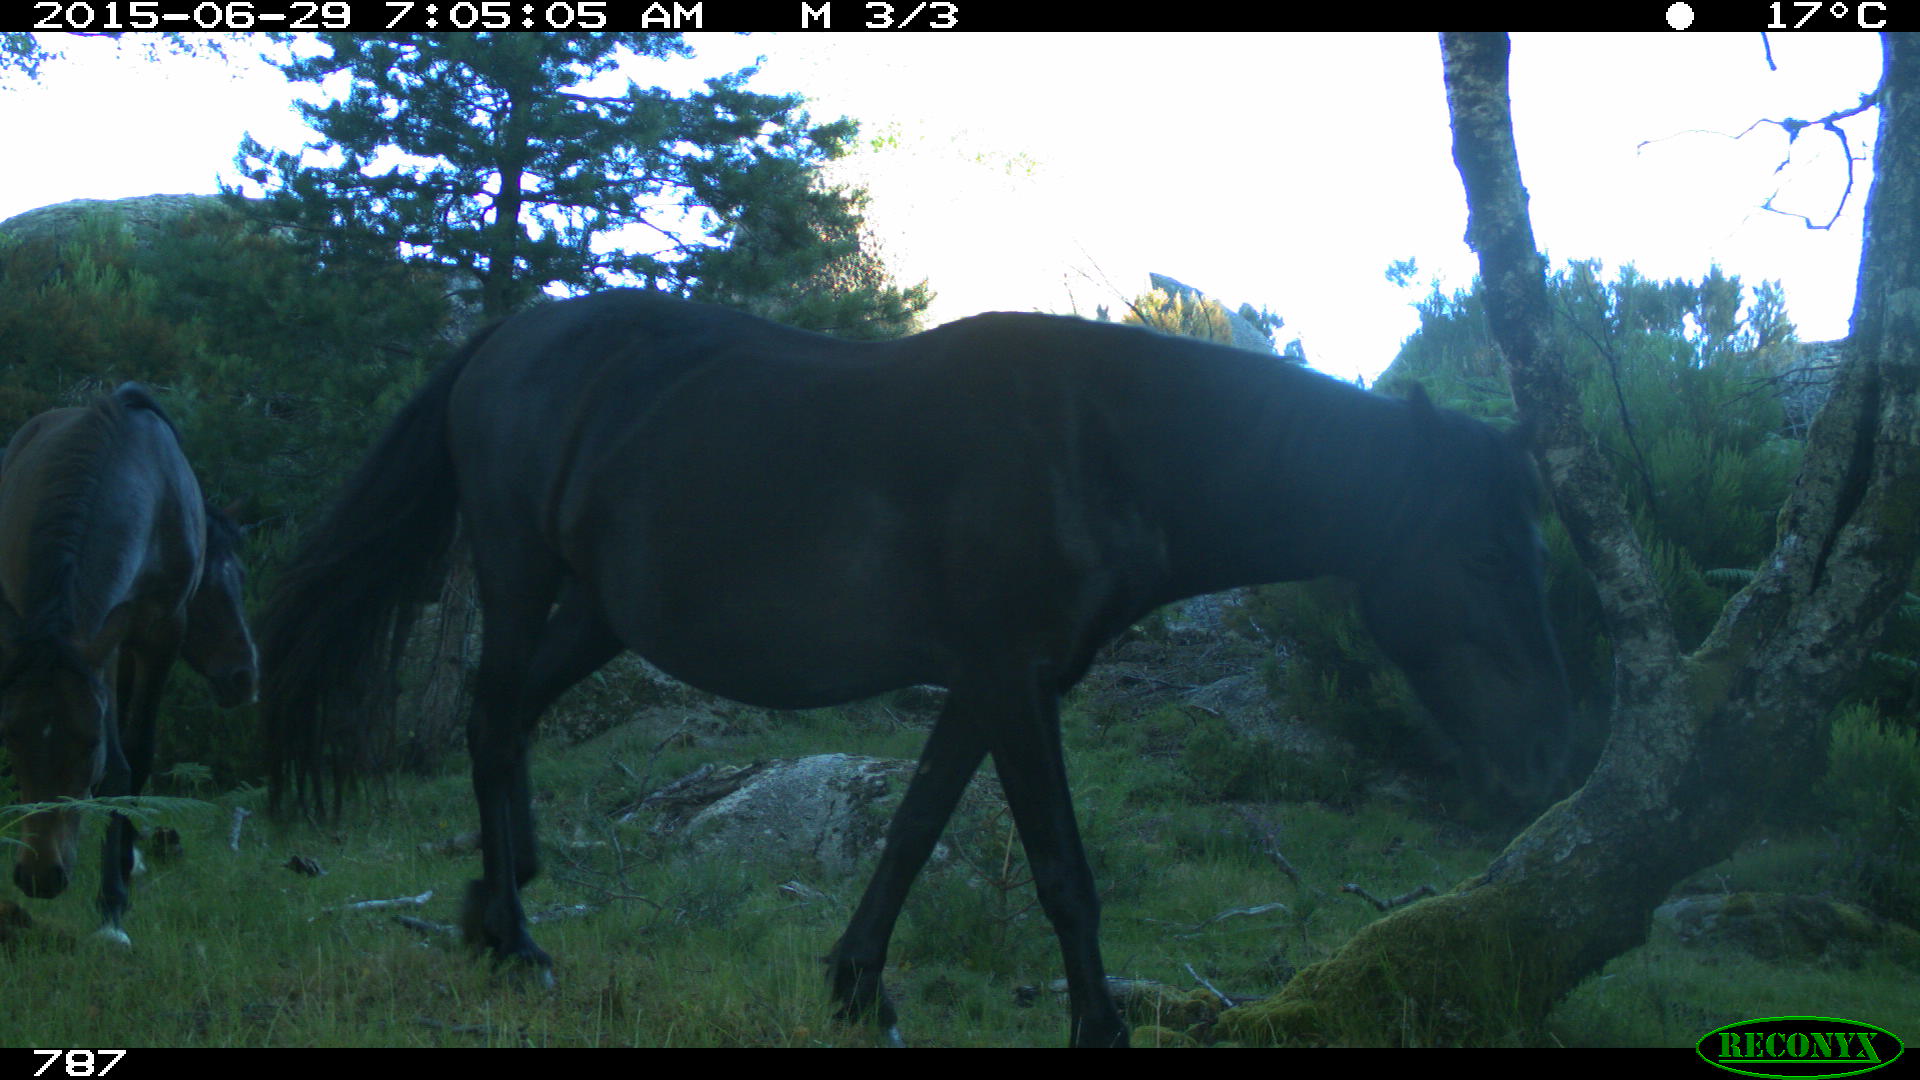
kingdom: Animalia
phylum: Chordata
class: Mammalia
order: Perissodactyla
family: Equidae
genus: Equus
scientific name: Equus caballus
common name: Horse
